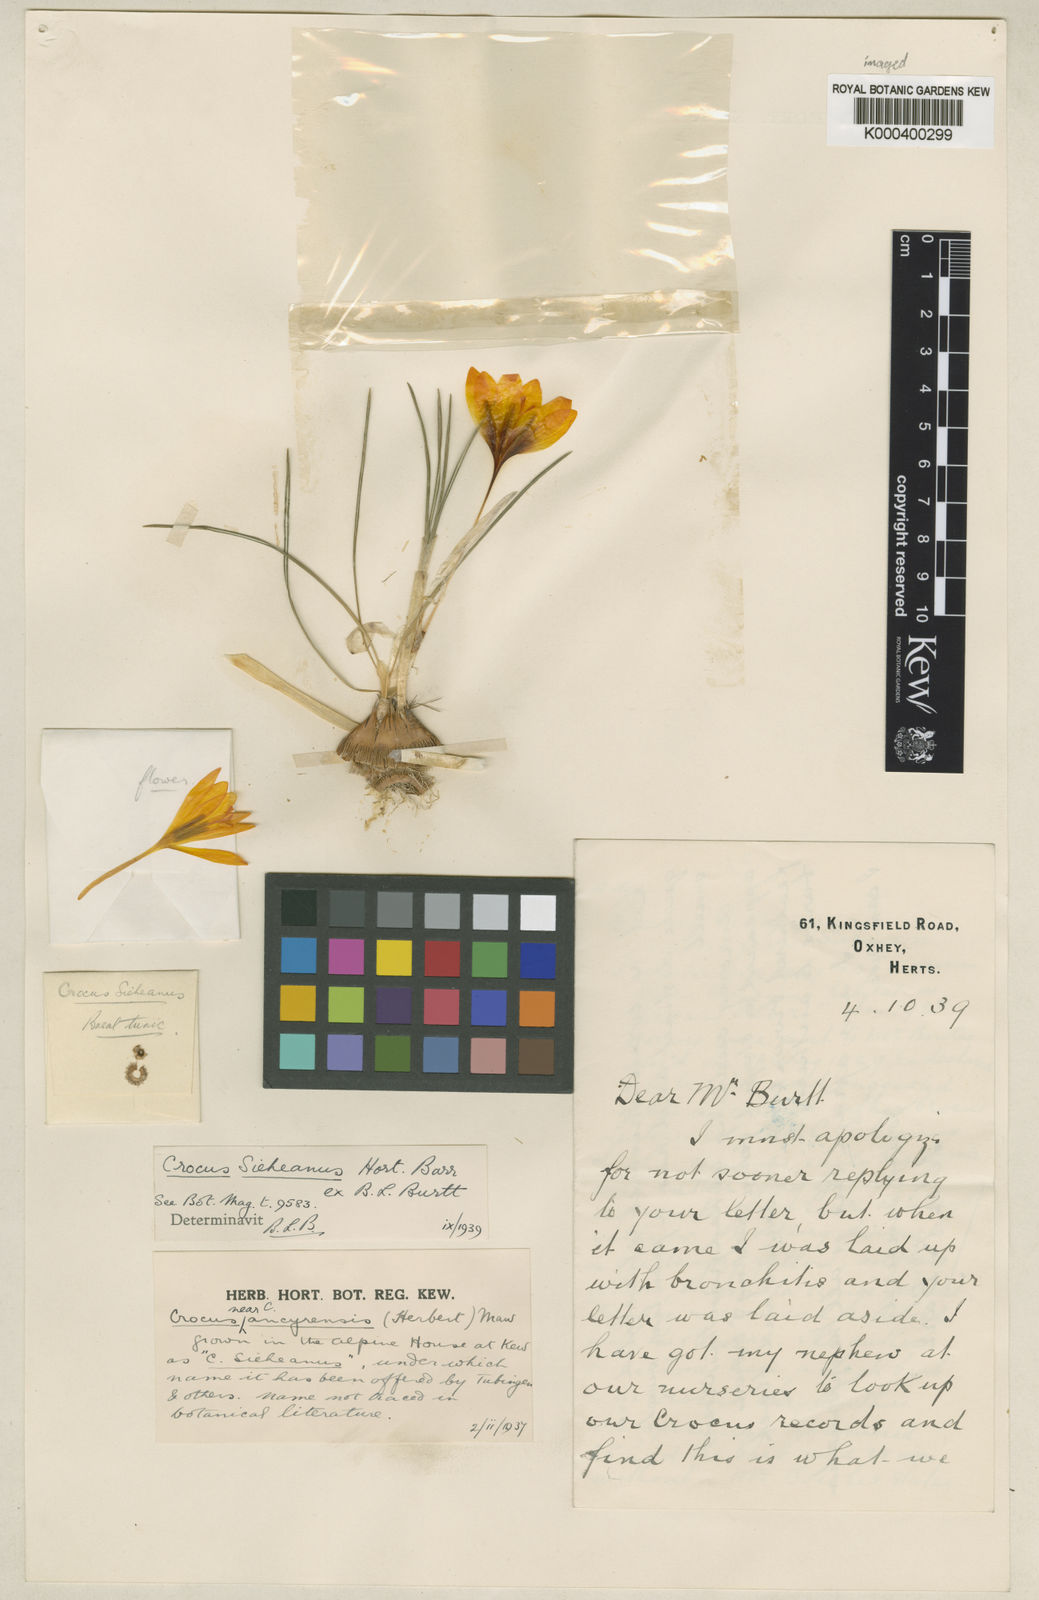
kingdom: Plantae
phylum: Tracheophyta
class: Liliopsida
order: Asparagales
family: Iridaceae
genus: Crocus
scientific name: Crocus sieheanus
